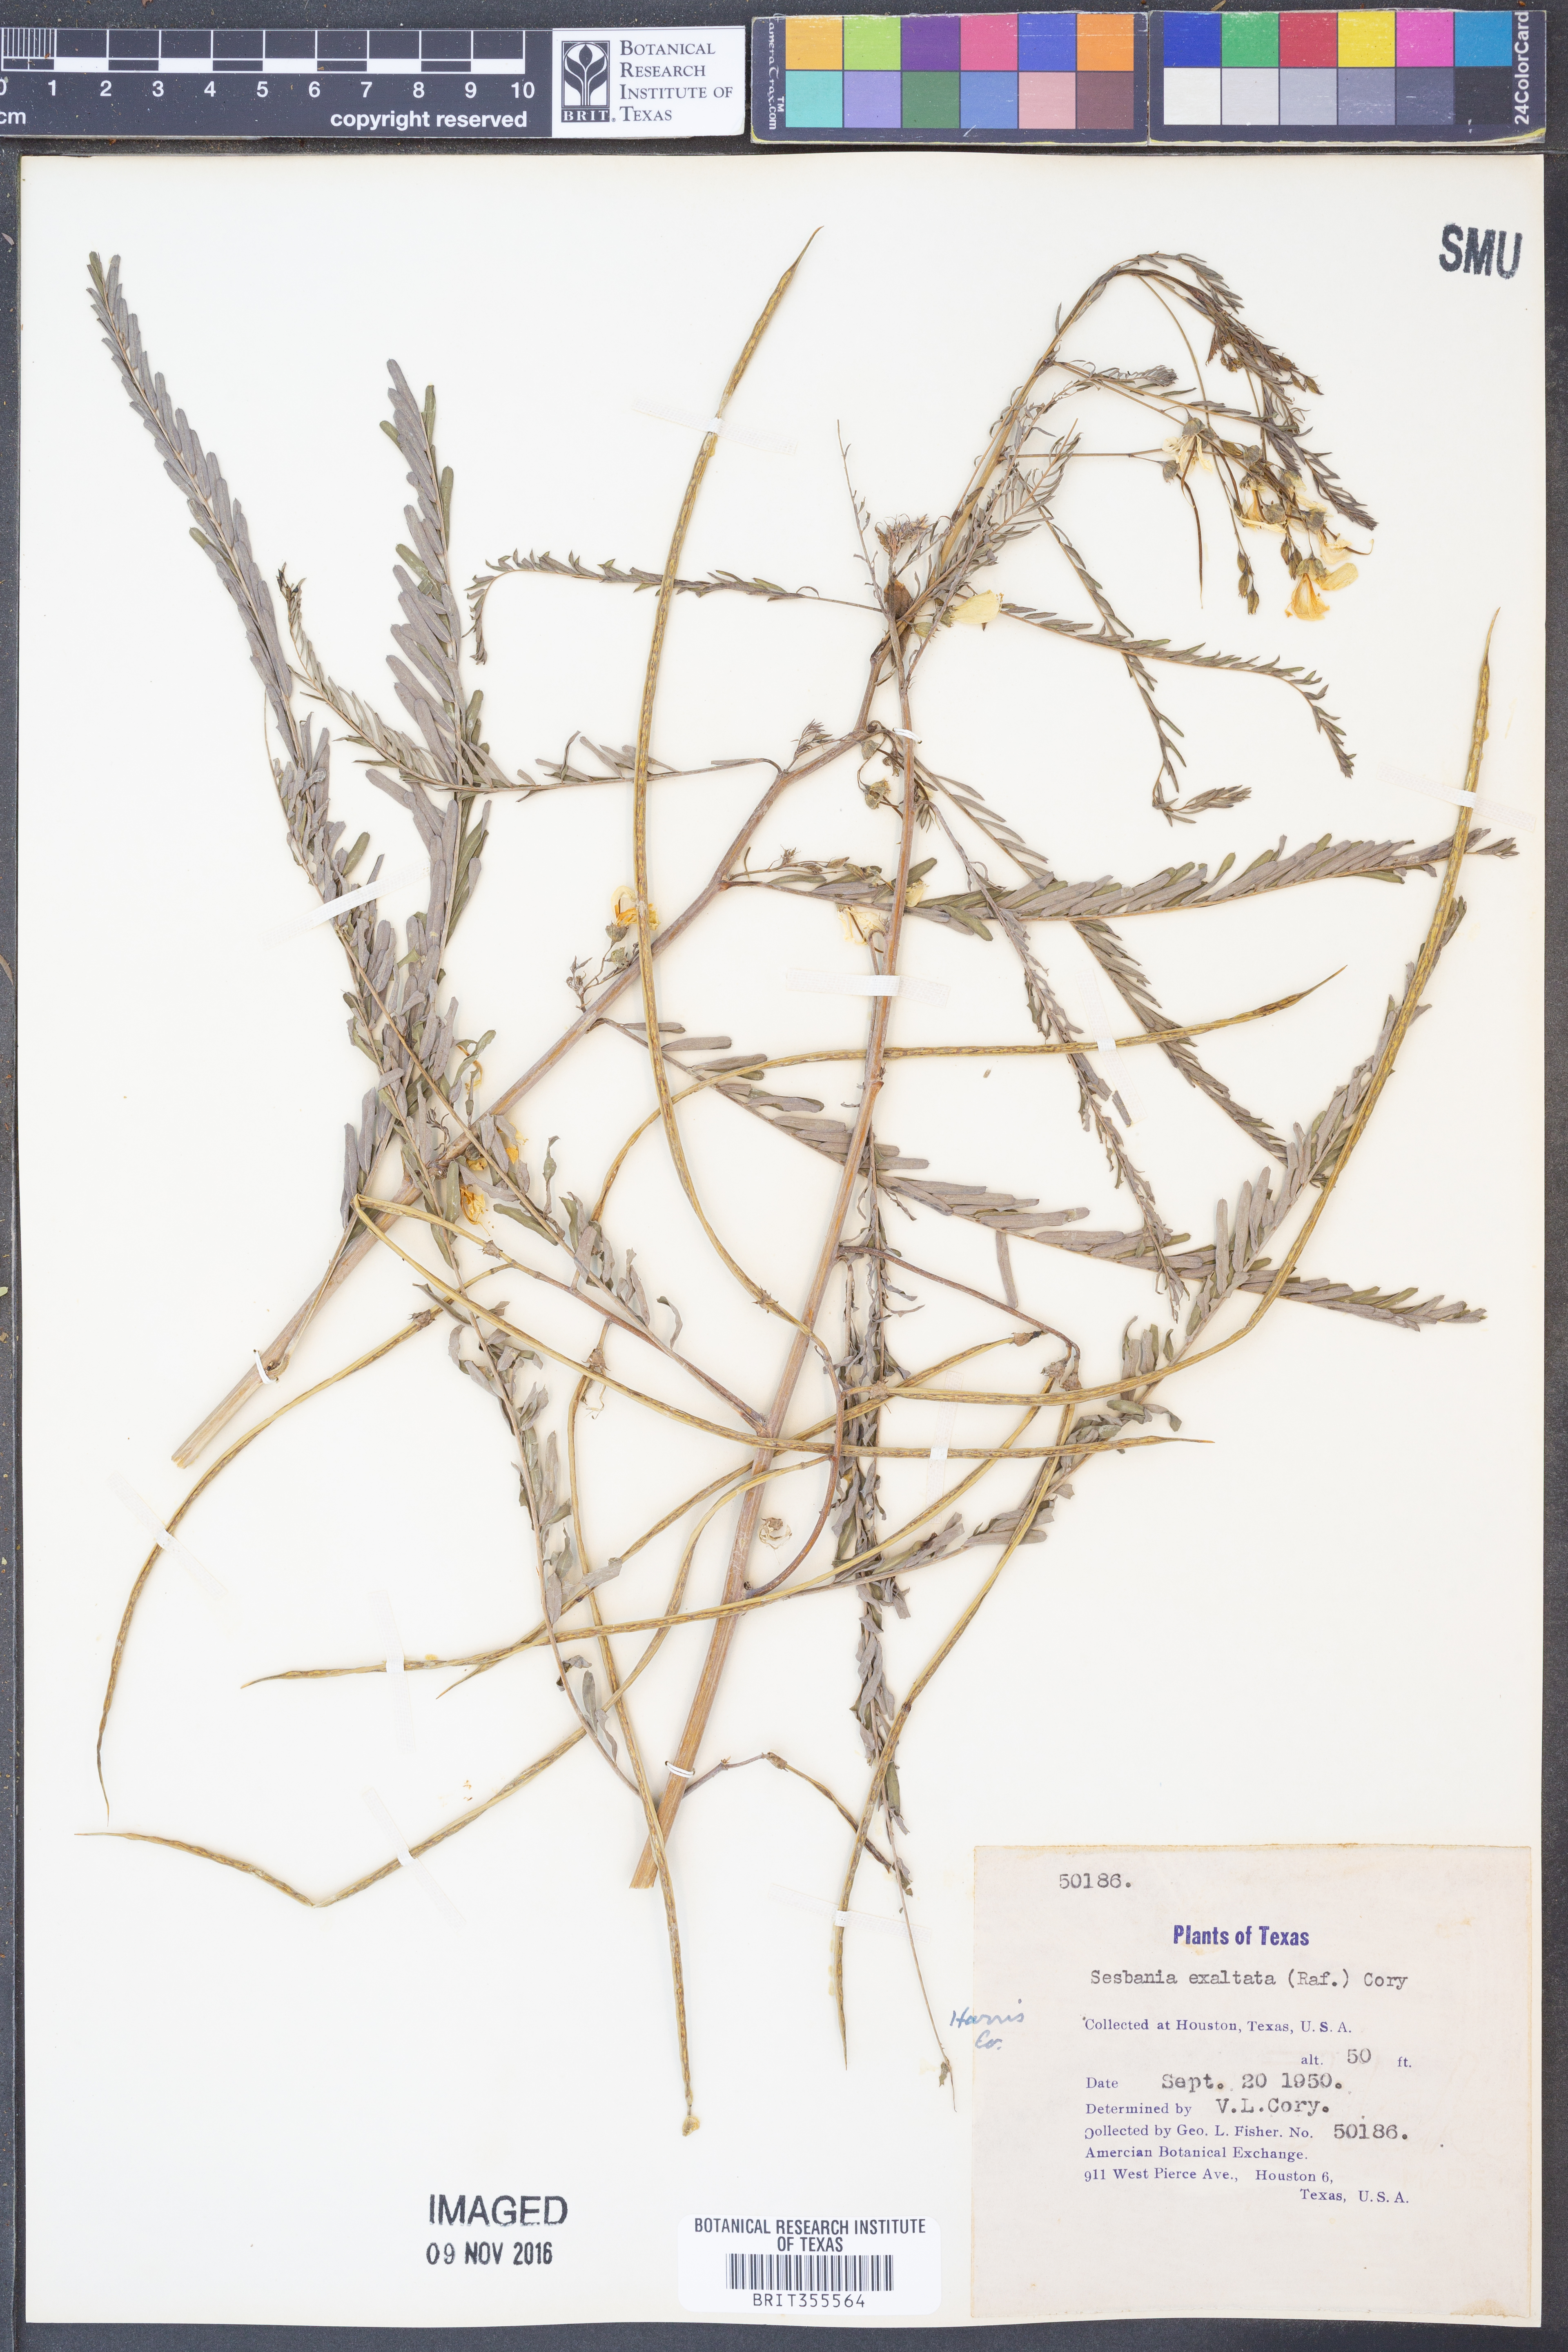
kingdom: Plantae
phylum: Tracheophyta
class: Magnoliopsida
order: Fabales
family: Fabaceae
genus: Sesbania
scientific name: Sesbania herbacea
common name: Bigpod sesbania
